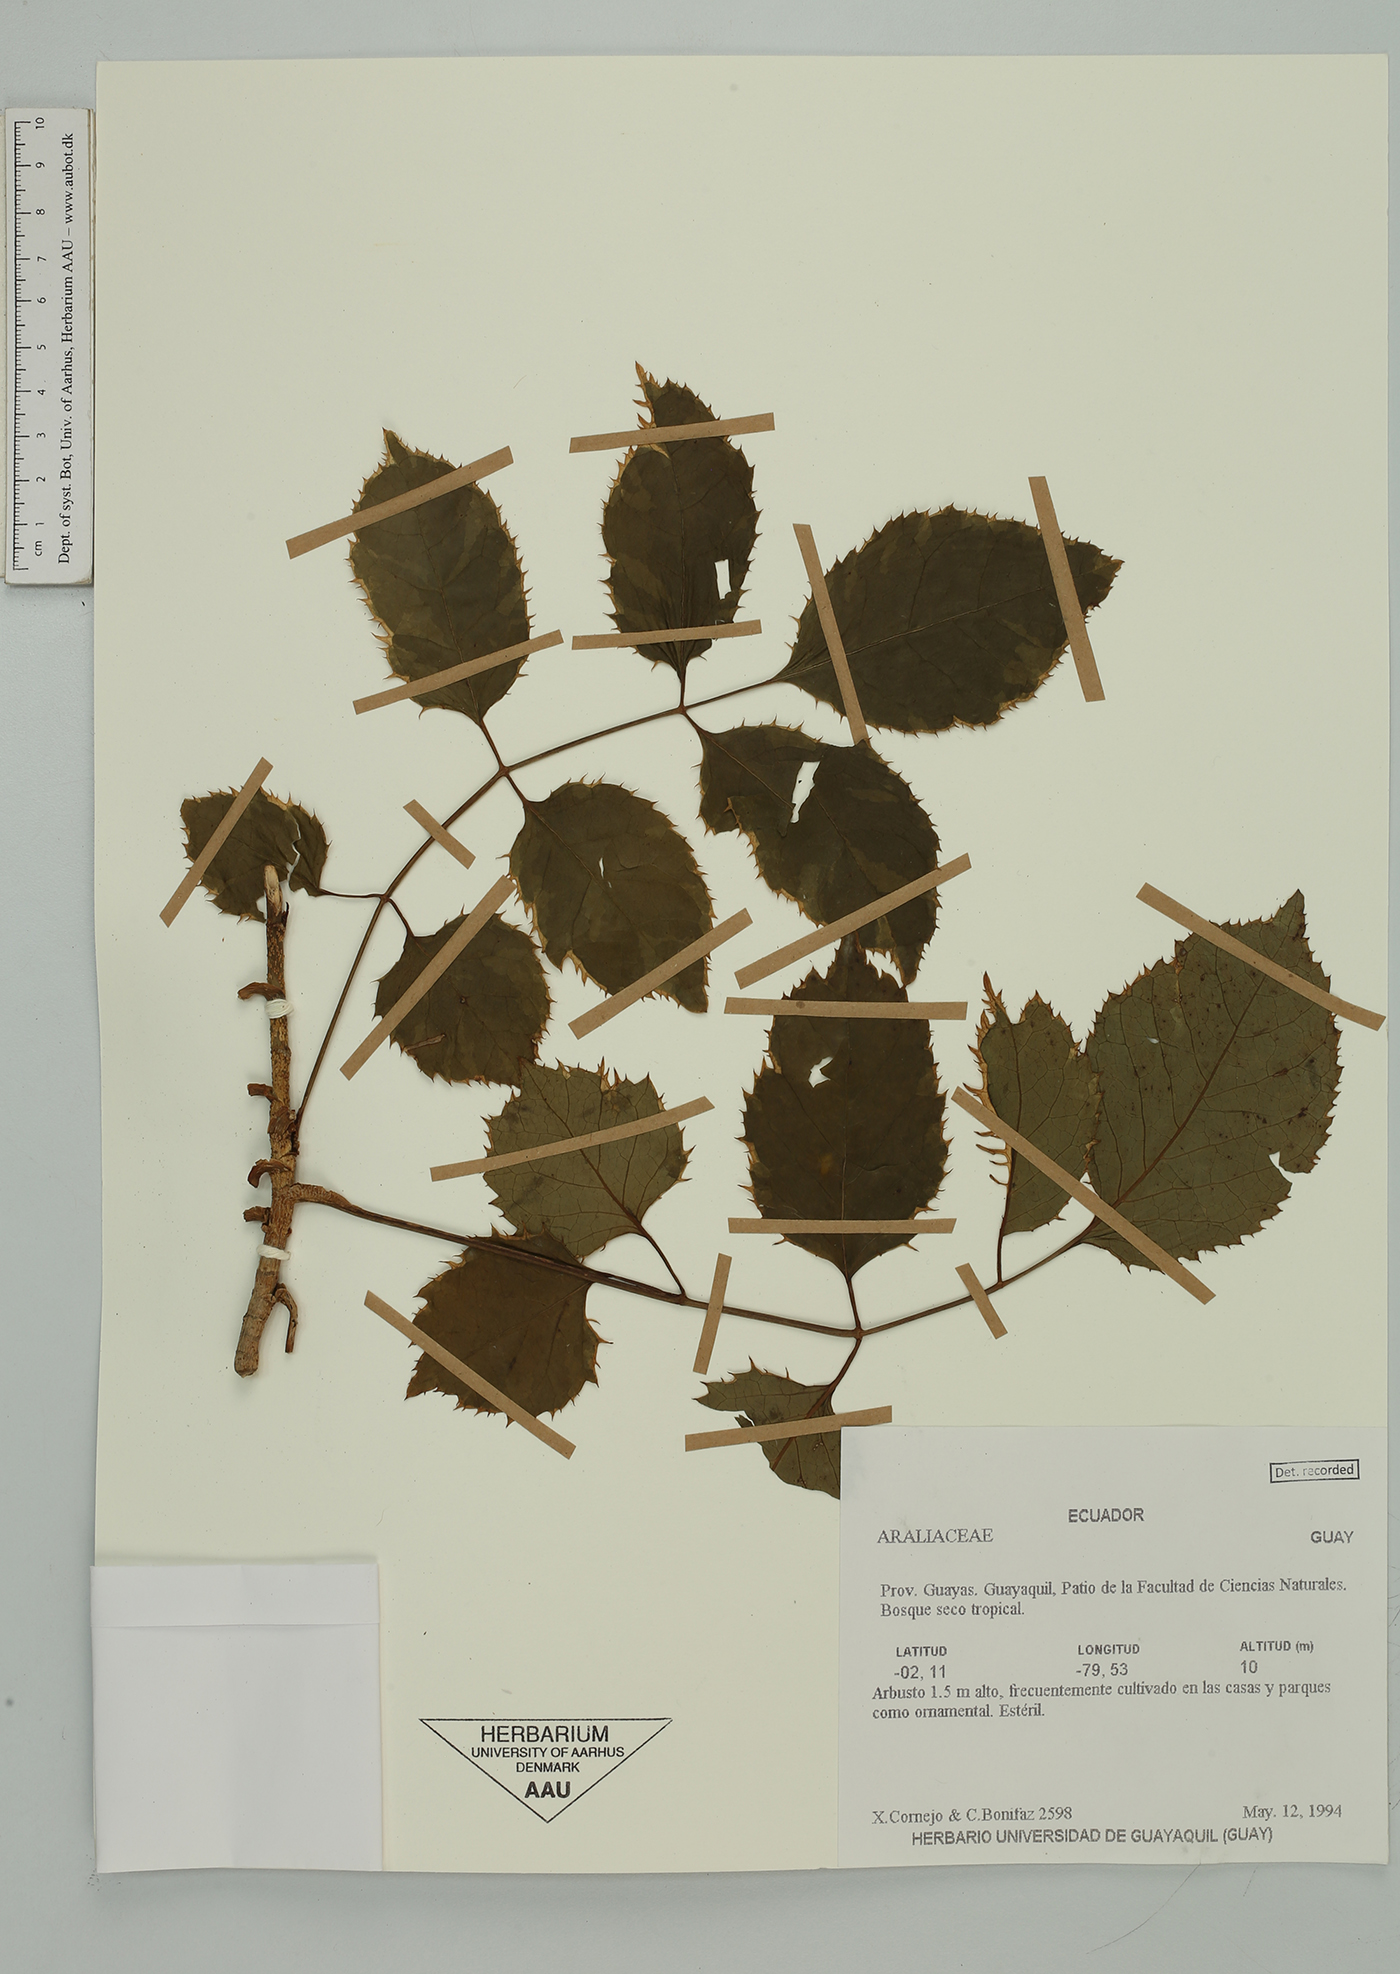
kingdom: Plantae
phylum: Tracheophyta
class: Magnoliopsida
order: Apiales
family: Araliaceae
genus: Polyscias
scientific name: Polyscias guilfoylei
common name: Geranium aralia
